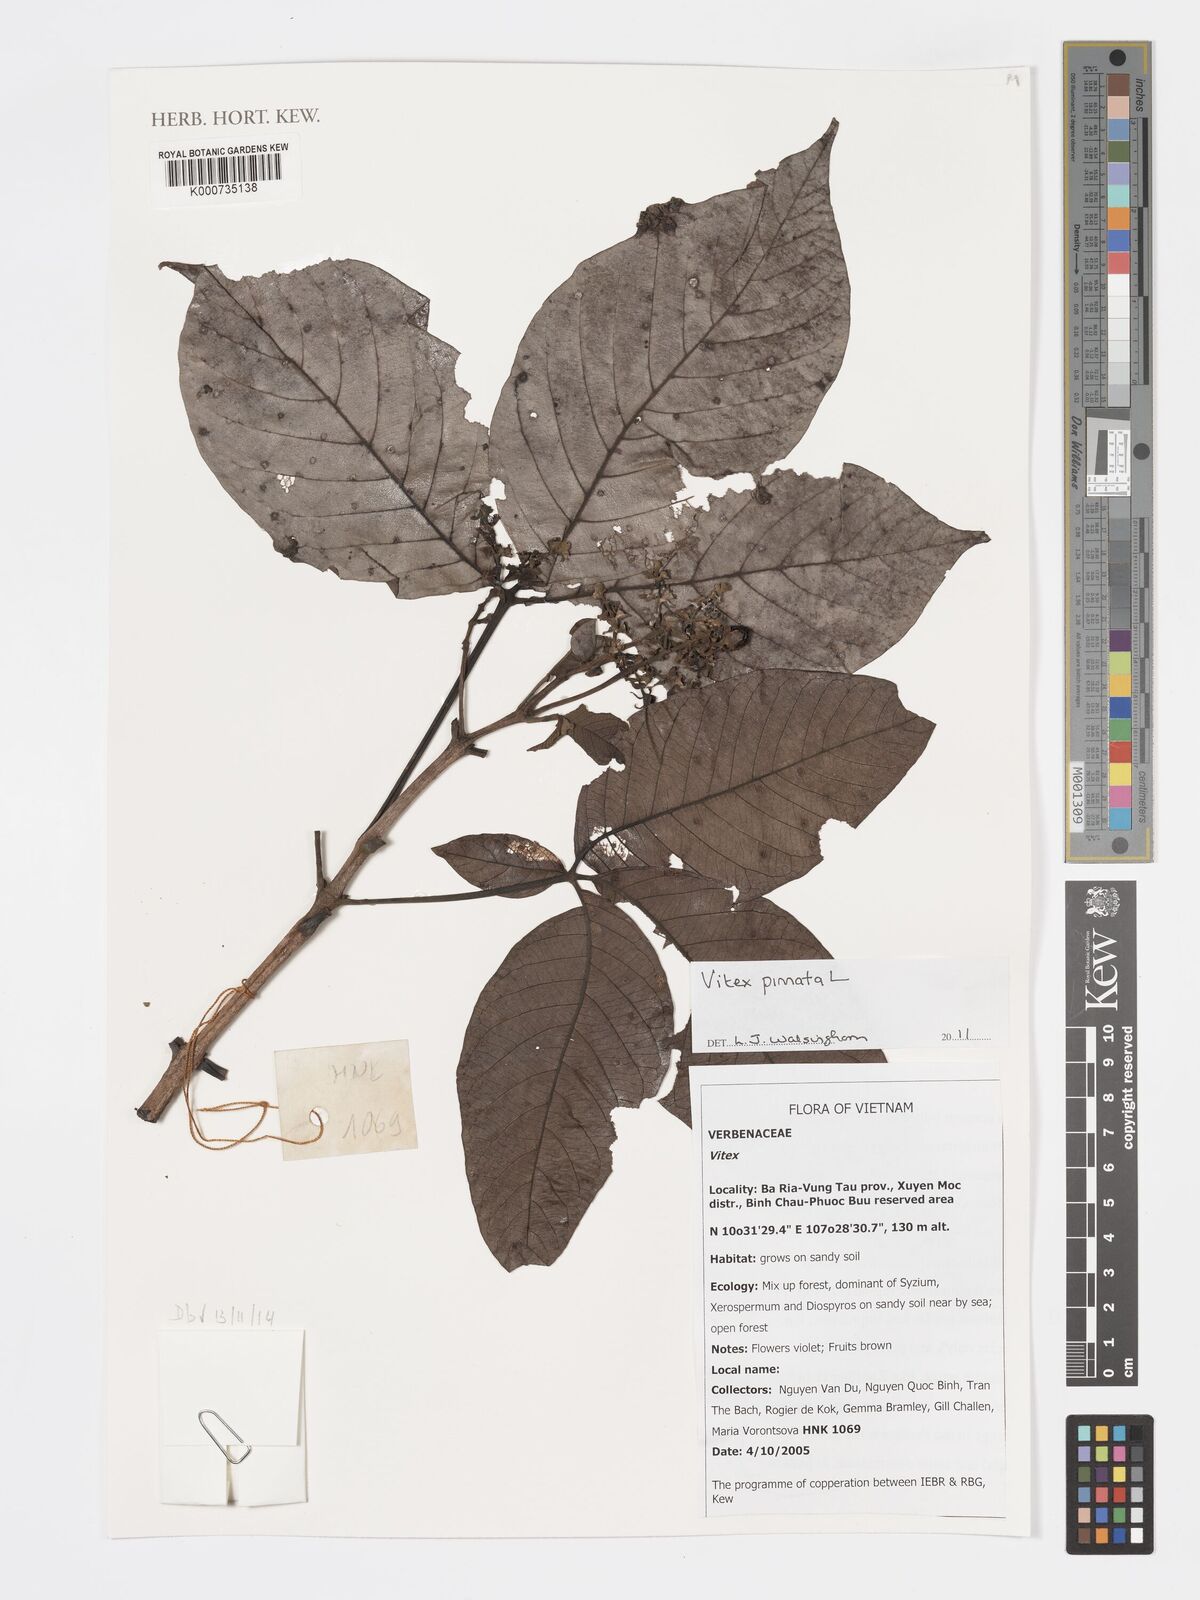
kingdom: Plantae
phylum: Tracheophyta
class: Magnoliopsida
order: Lamiales
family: Lamiaceae
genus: Vitex
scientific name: Vitex pinnata
